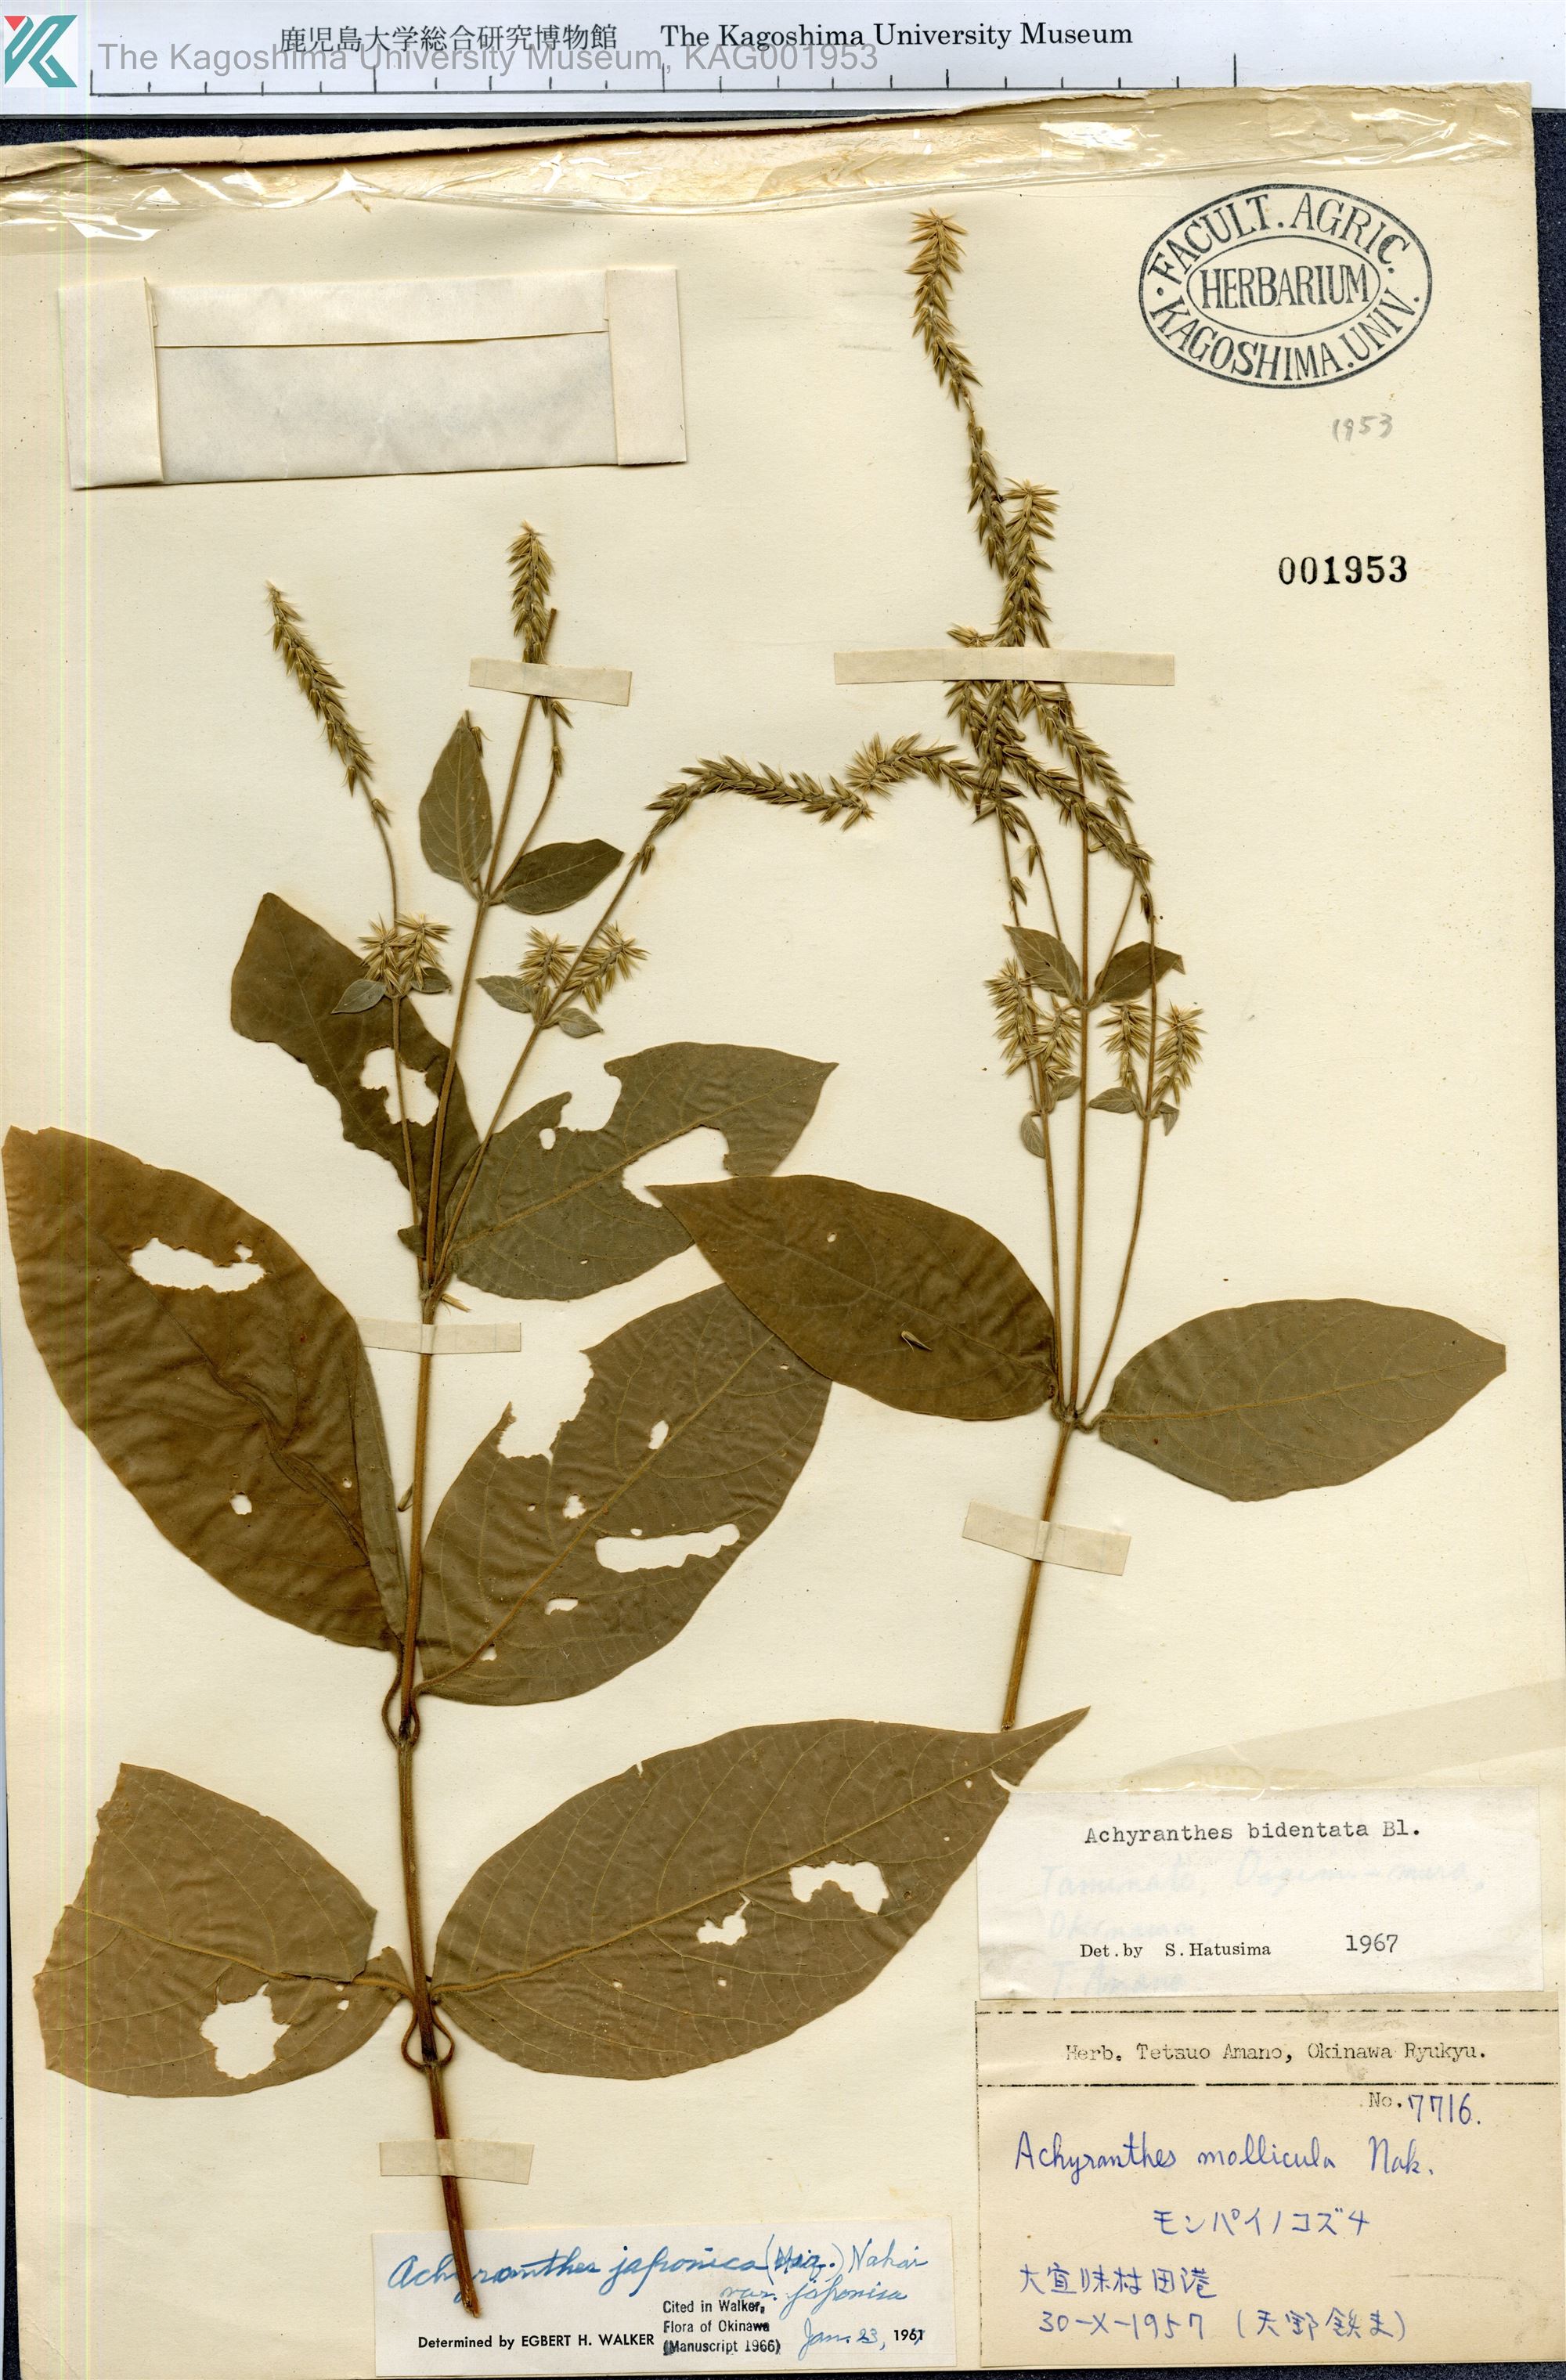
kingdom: Plantae
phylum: Tracheophyta
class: Magnoliopsida
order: Caryophyllales
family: Amaranthaceae
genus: Achyranthes
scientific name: Achyranthes bidentata
